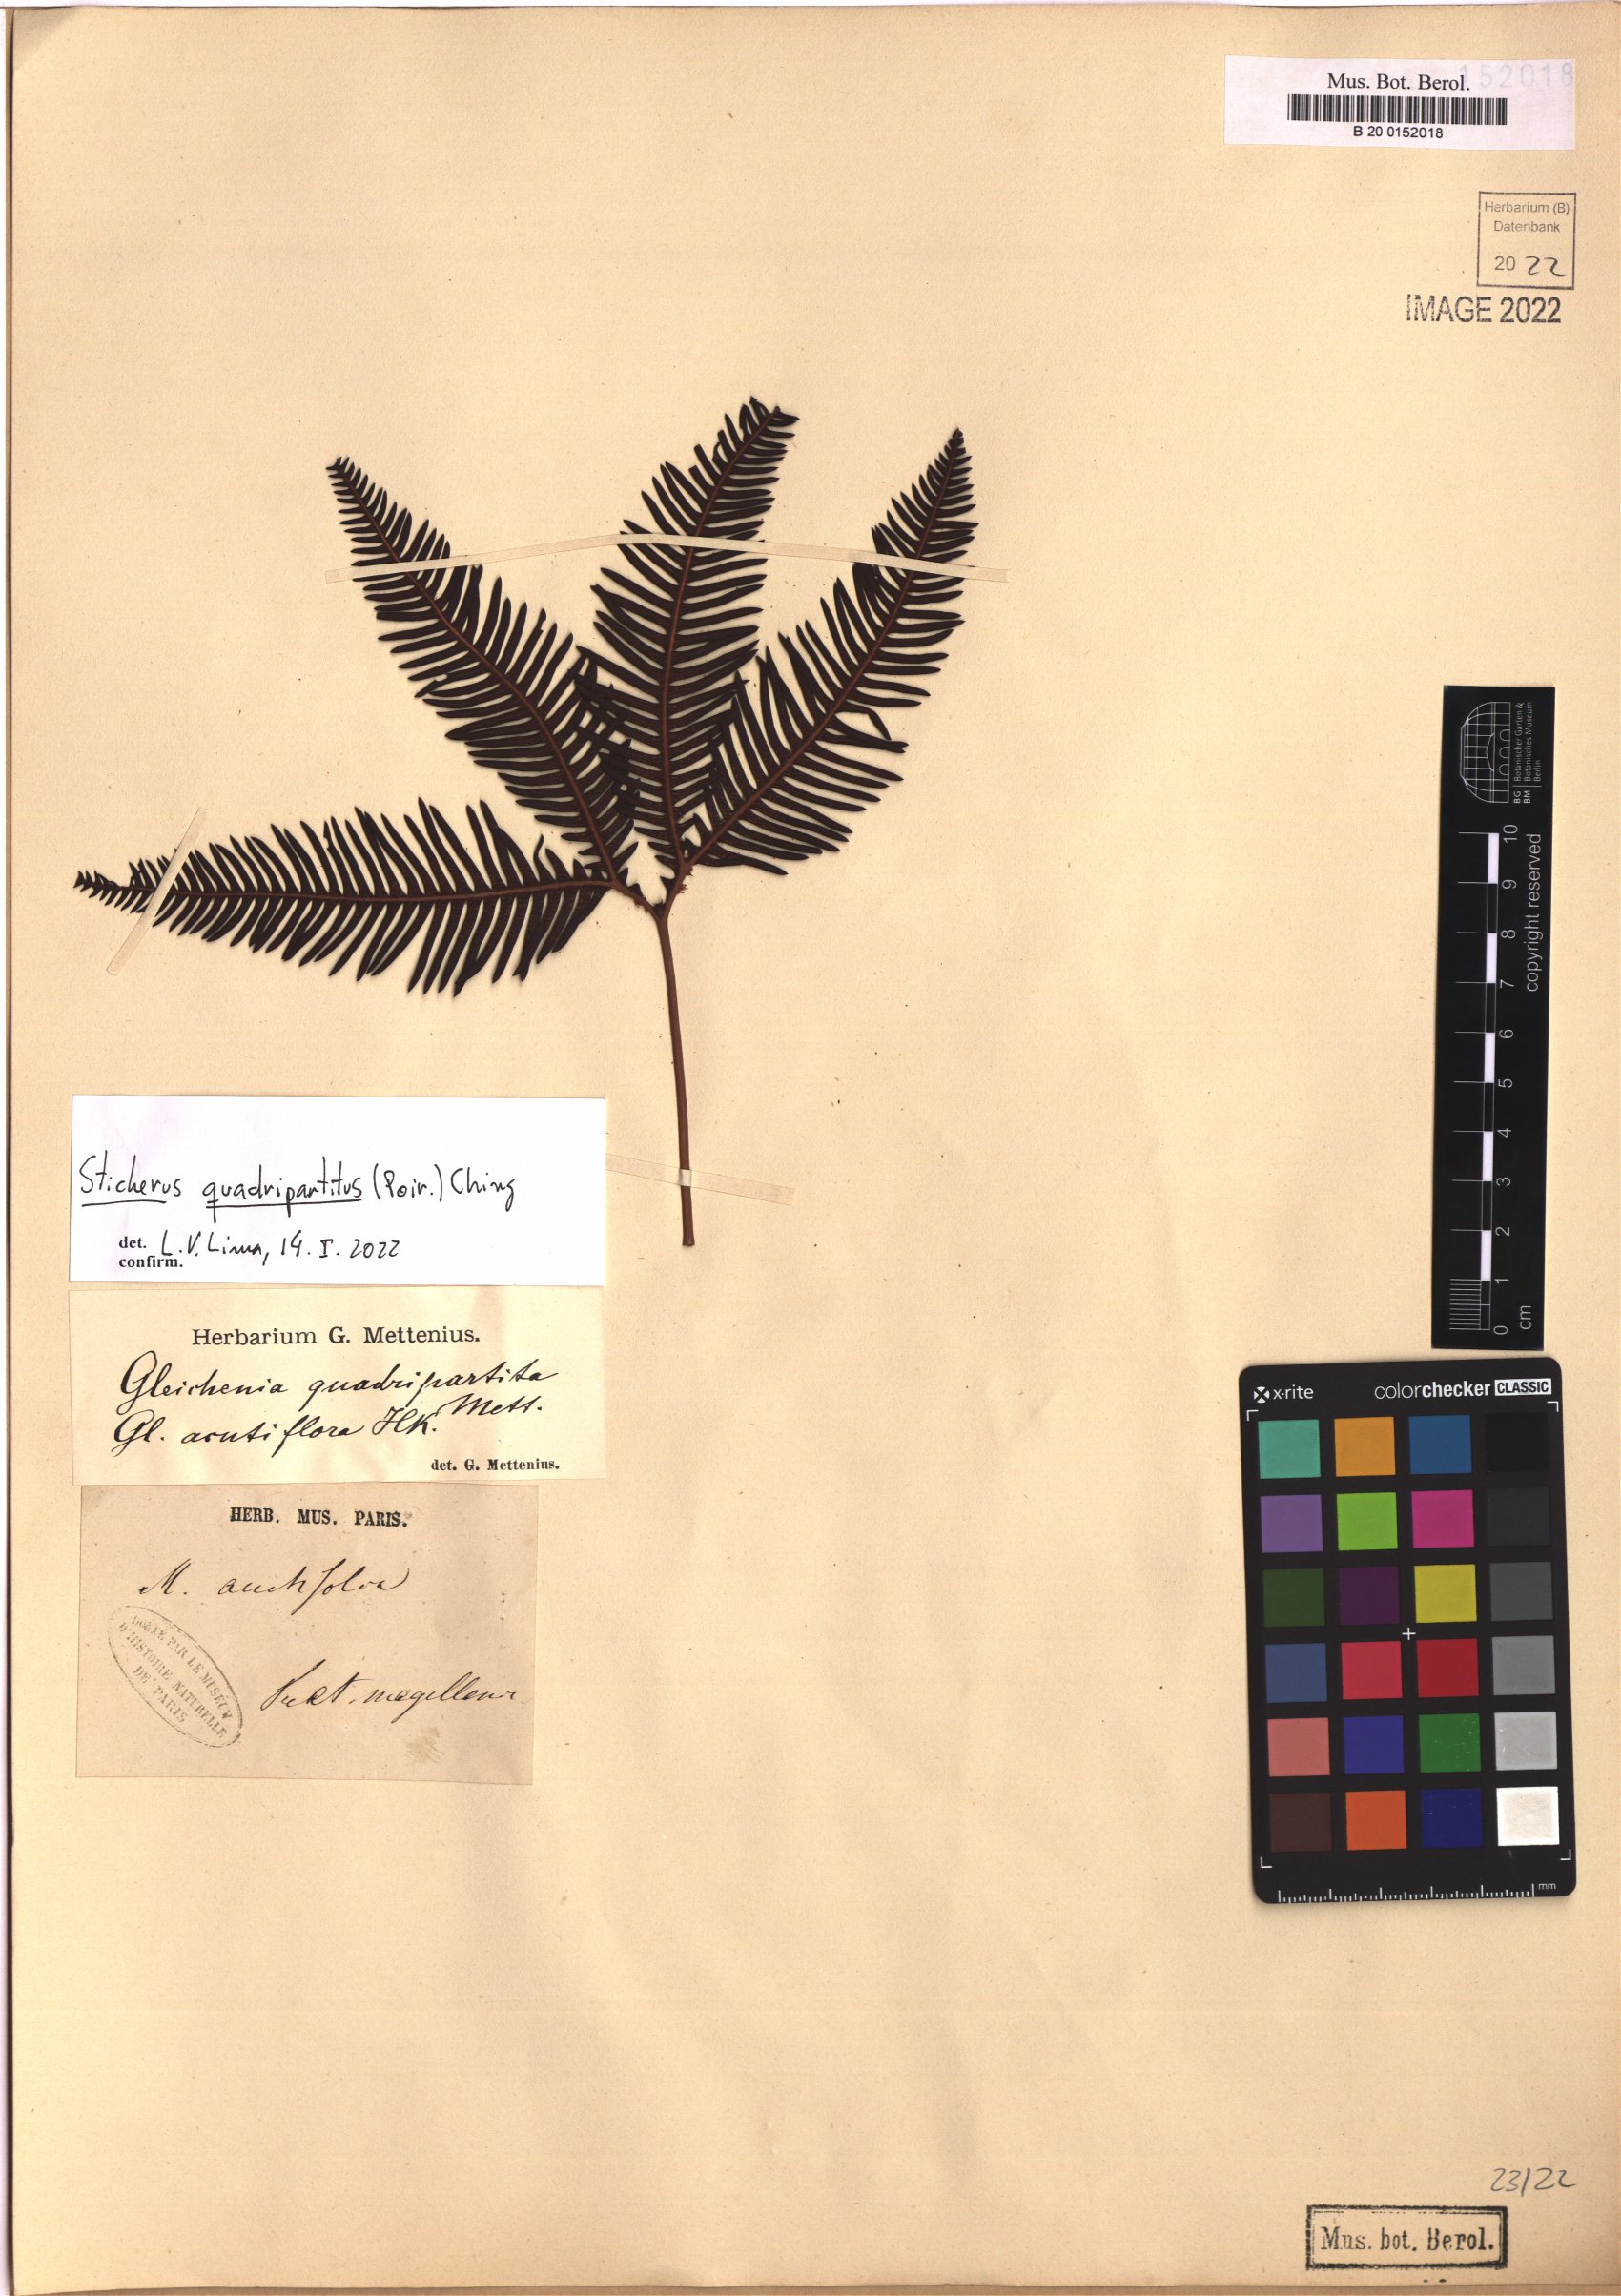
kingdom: Plantae
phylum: Tracheophyta
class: Polypodiopsida
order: Gleicheniales
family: Gleicheniaceae
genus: Sticherus
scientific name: Sticherus quadripartitus
